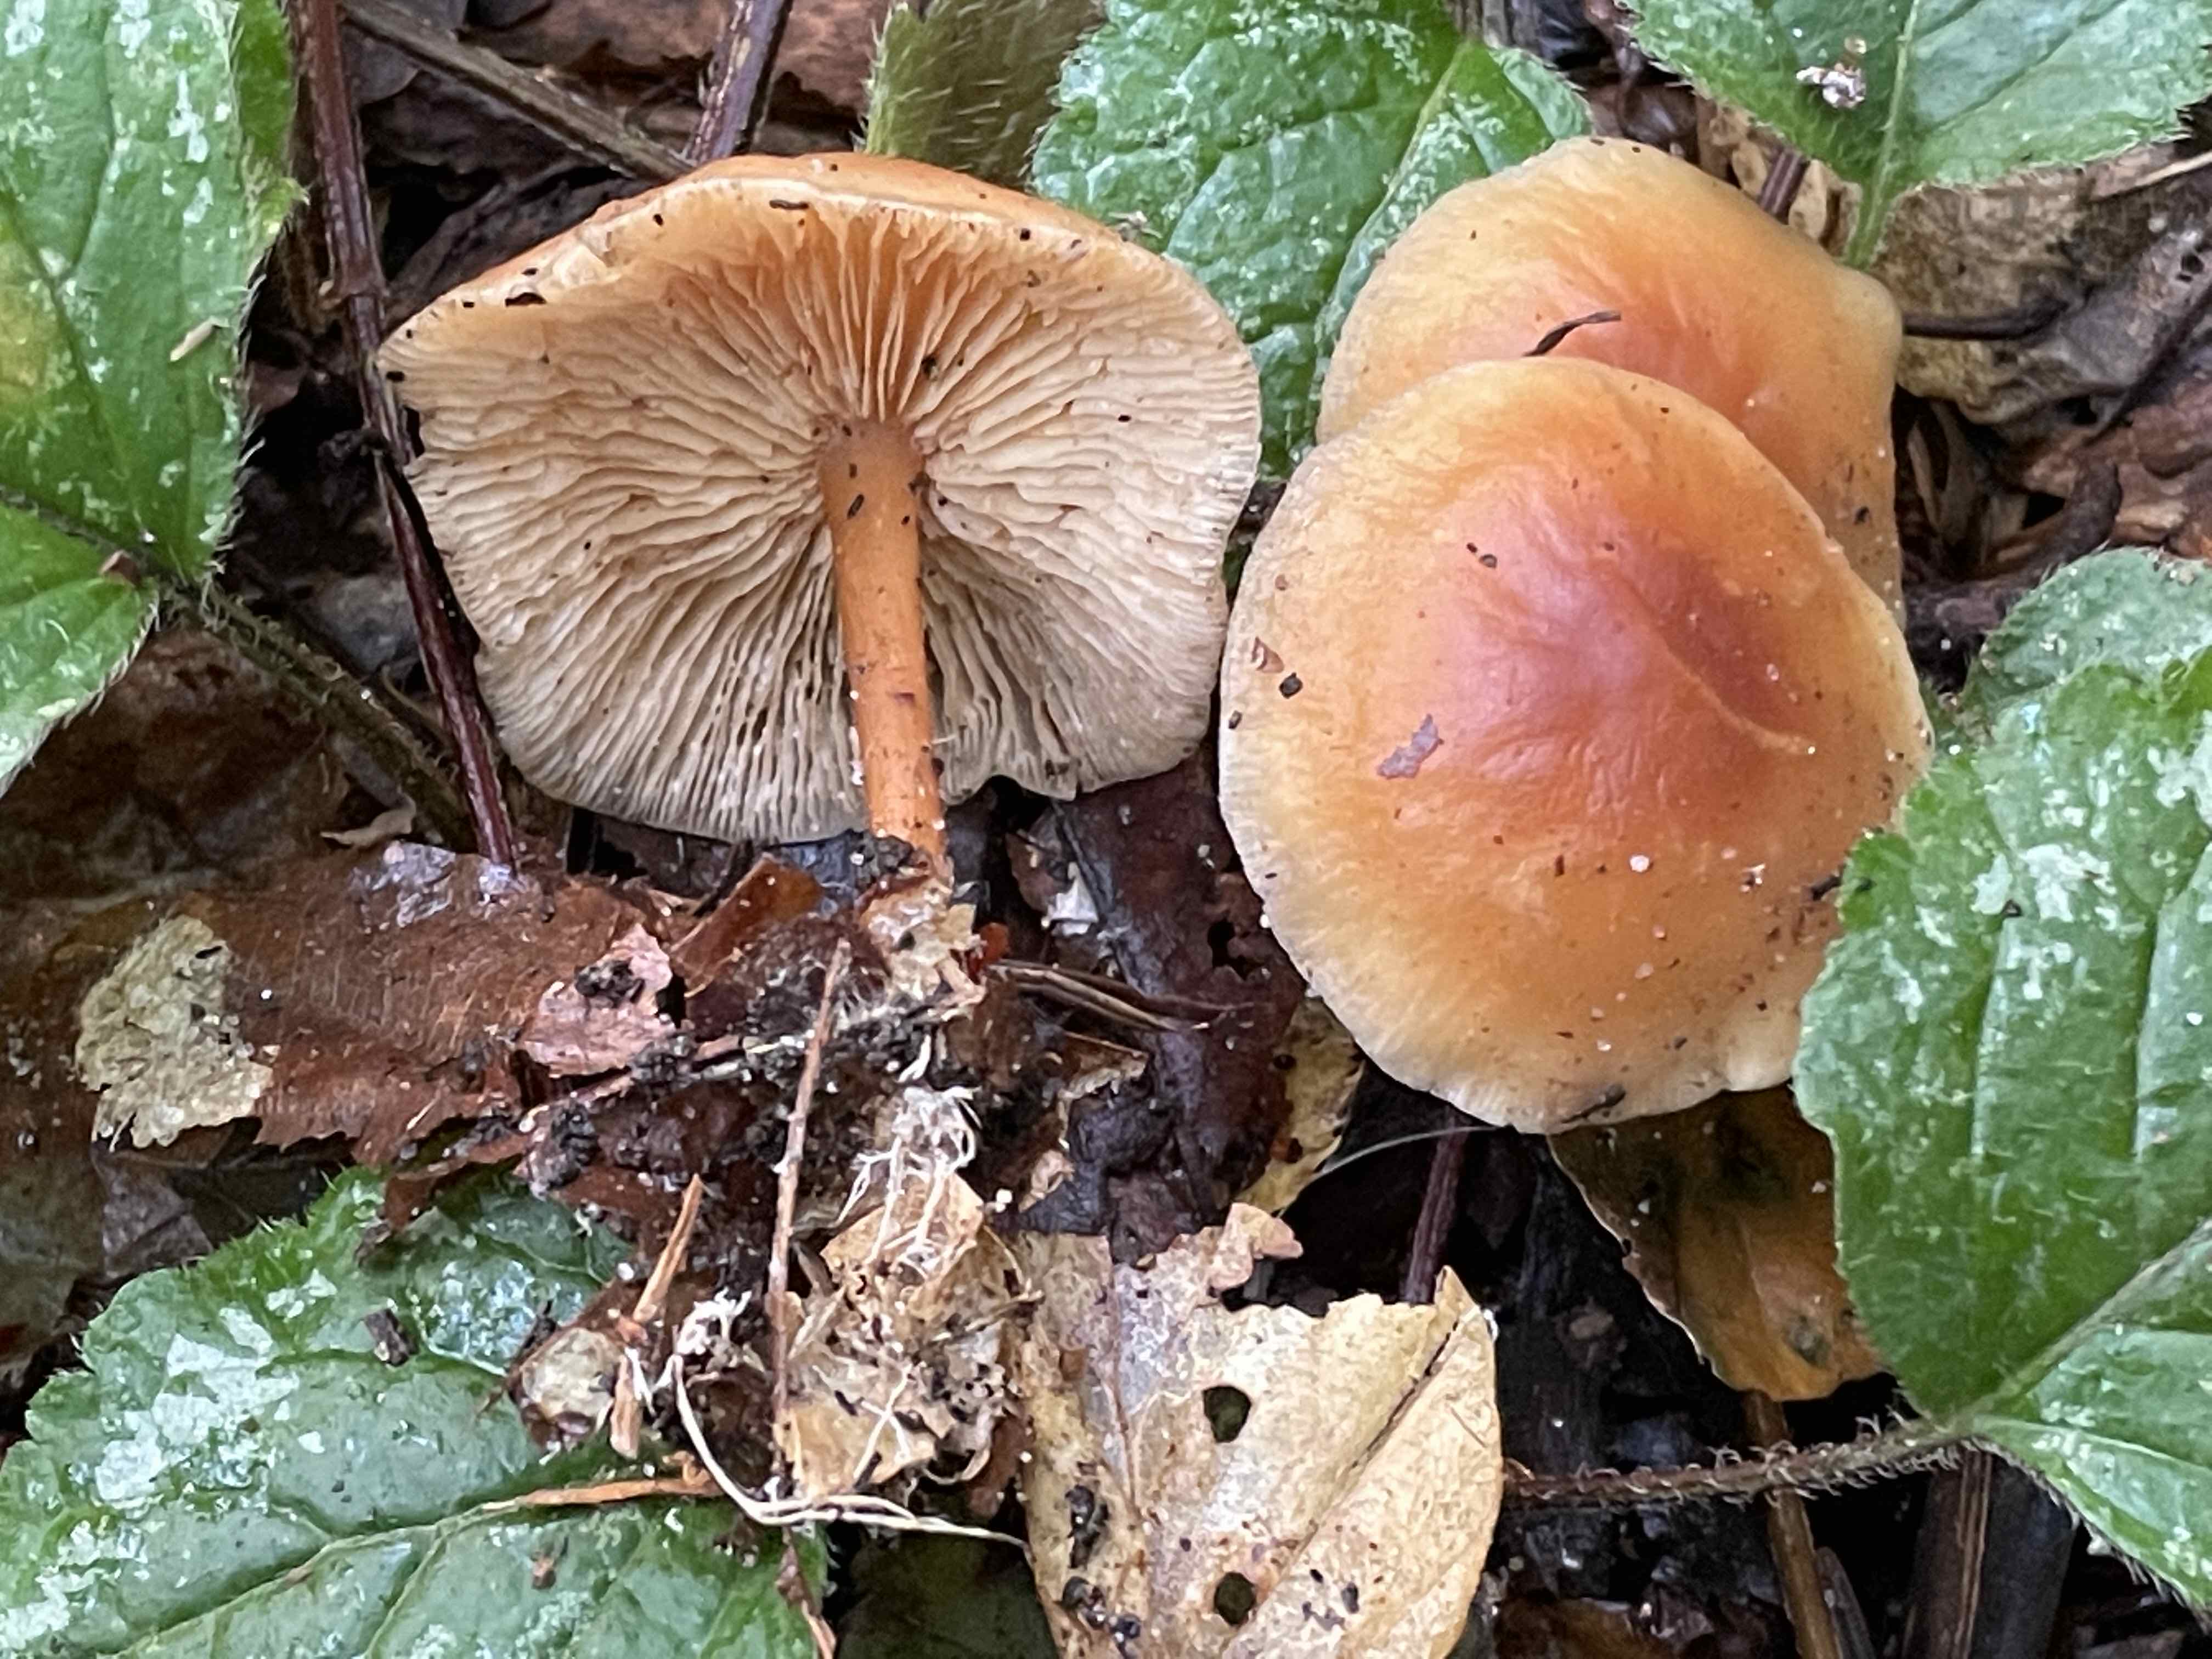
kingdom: Fungi
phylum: Basidiomycota
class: Agaricomycetes
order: Agaricales
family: Omphalotaceae
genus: Gymnopus
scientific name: Gymnopus dryophilus
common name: løv-fladhat
